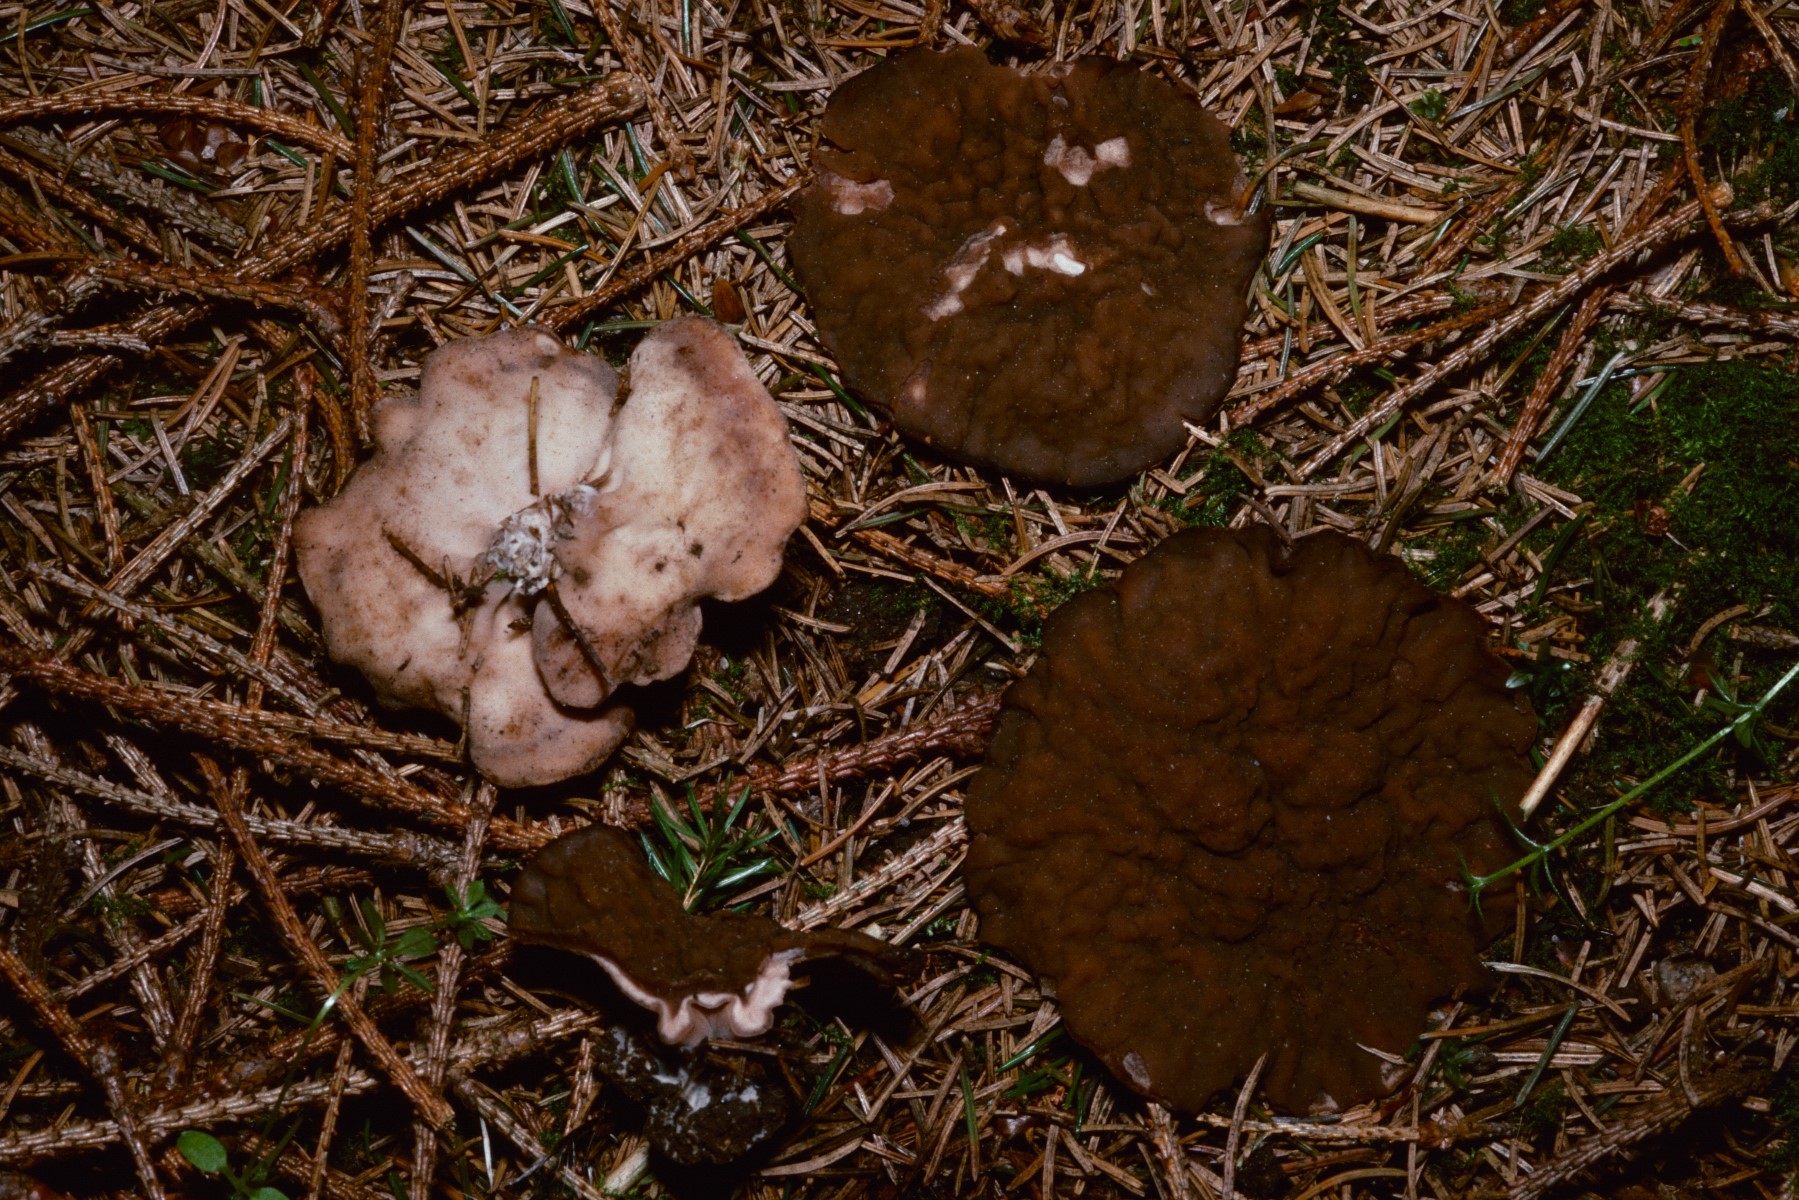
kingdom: Fungi
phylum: Ascomycota
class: Pezizomycetes
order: Pezizales
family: Discinaceae
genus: Discina
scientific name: Discina ancilis
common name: udbredt stenmorkel
